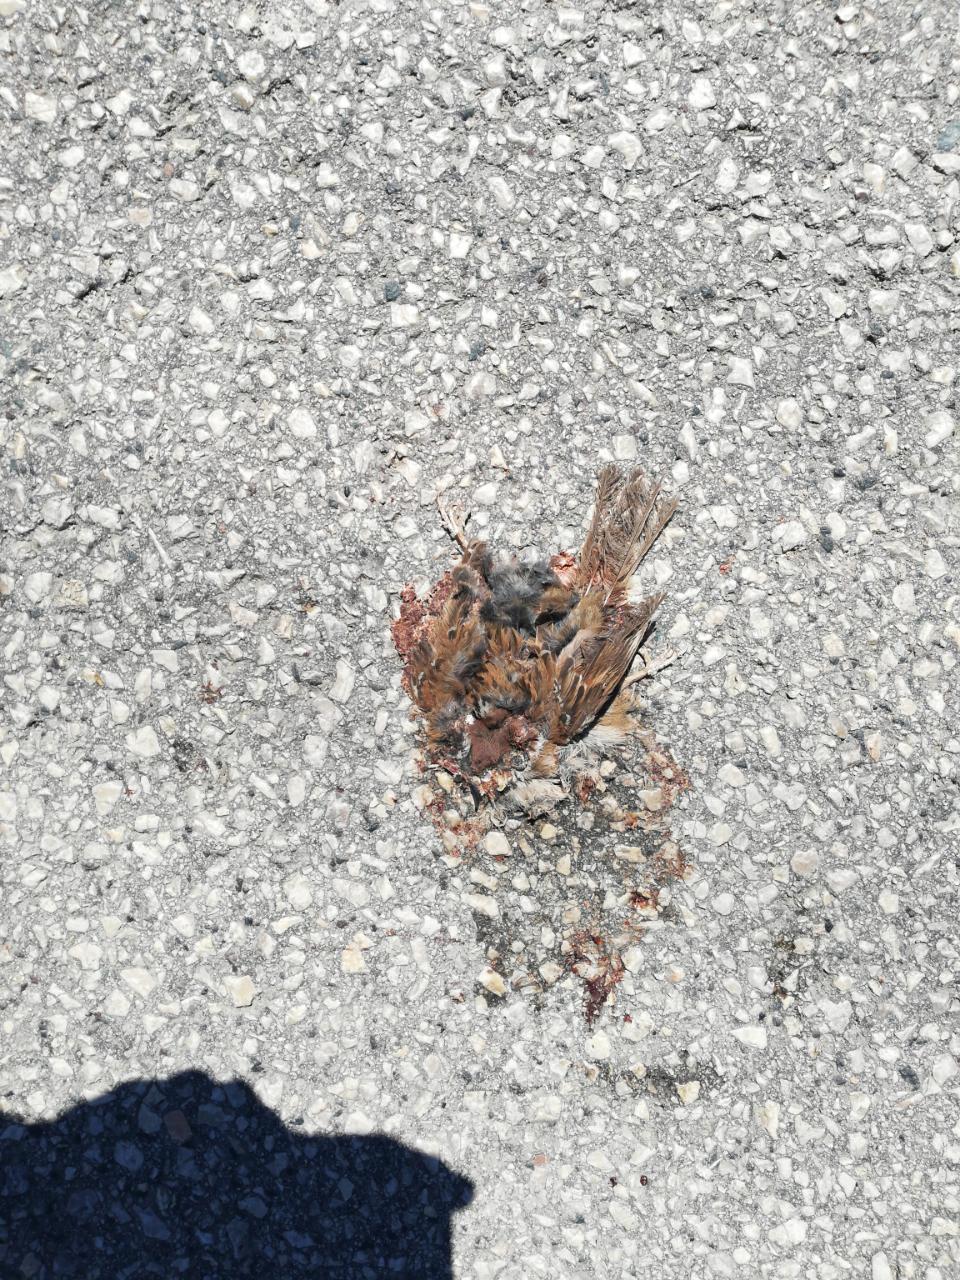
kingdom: Animalia
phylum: Chordata
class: Aves
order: Passeriformes
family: Passeridae
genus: Passer
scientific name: Passer
